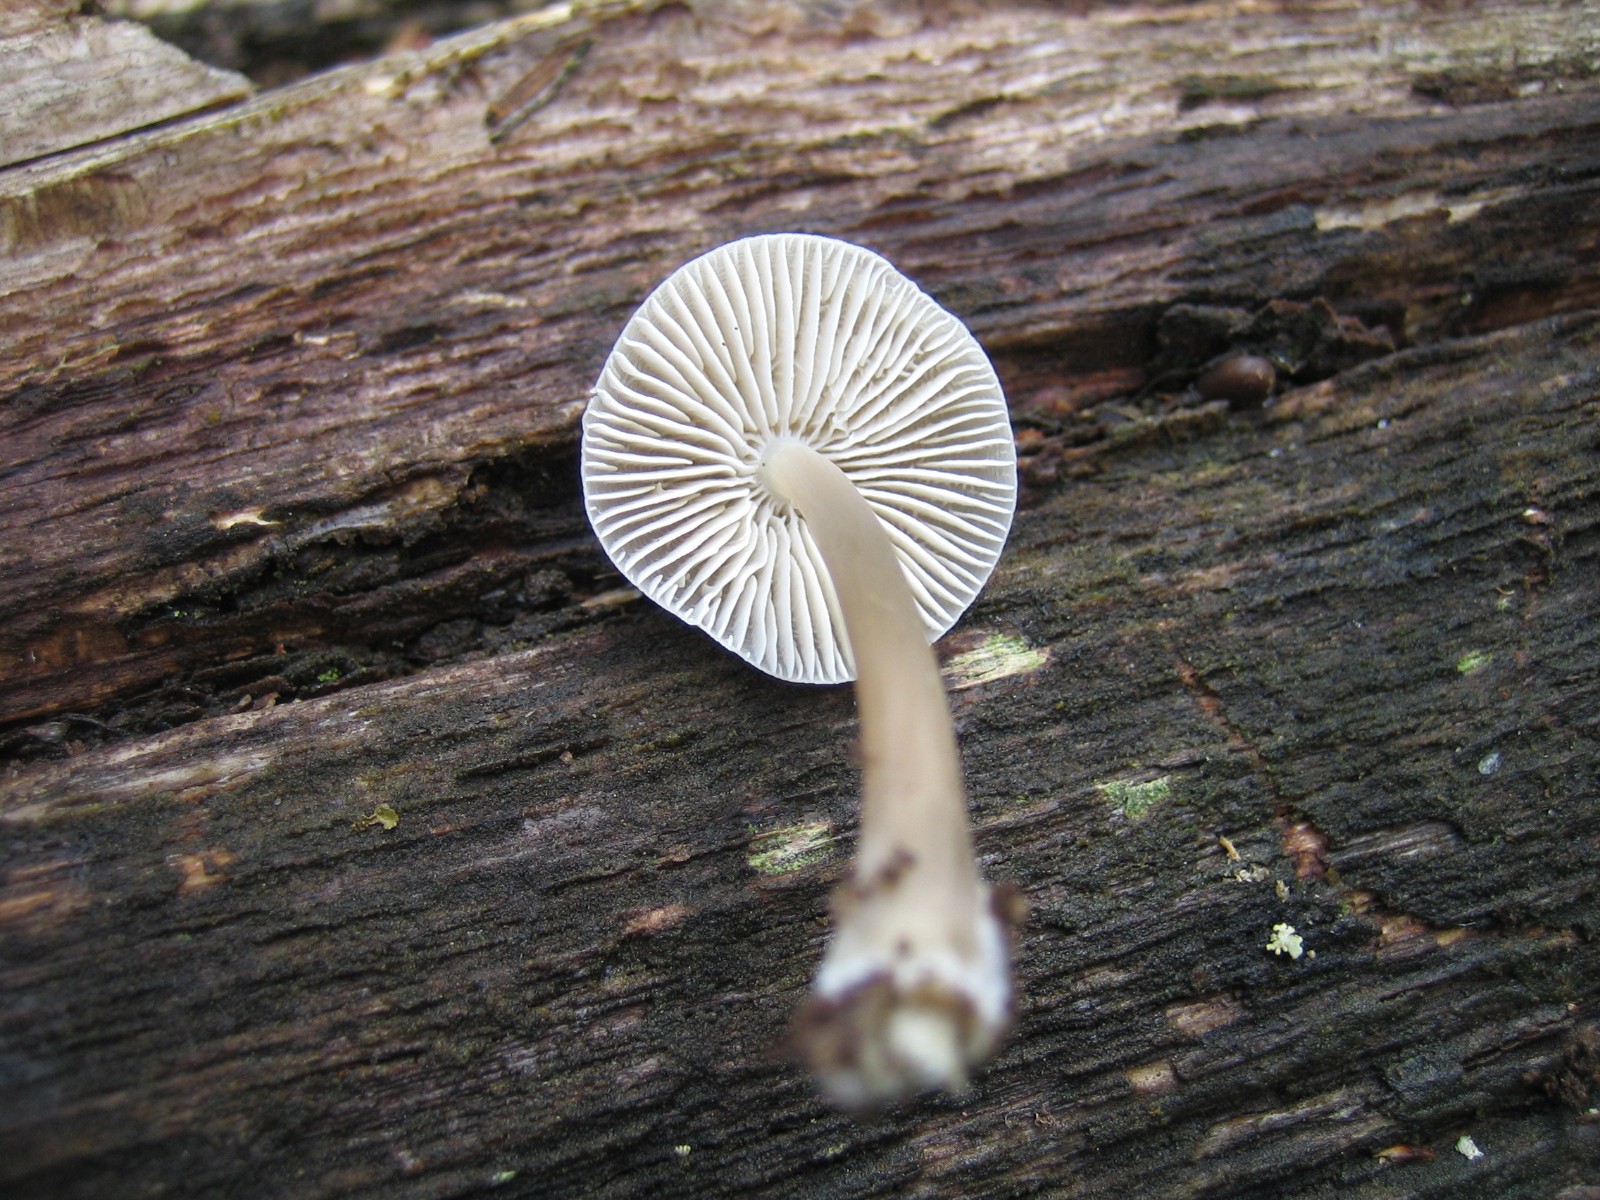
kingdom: Fungi
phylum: Basidiomycota
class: Agaricomycetes
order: Agaricales
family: Mycenaceae
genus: Mycena
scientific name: Mycena galericulata
